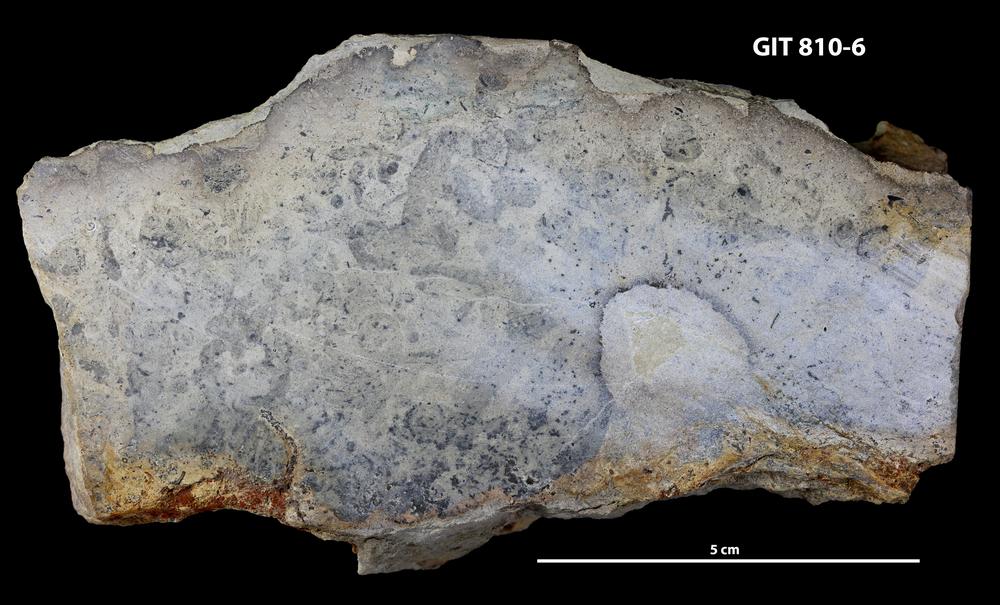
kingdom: Animalia
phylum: Brachiopoda
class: Lingulata
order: Lingulida
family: Pseudolingulidae
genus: Pseudolingula
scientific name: Pseudolingula Crania quadrata
